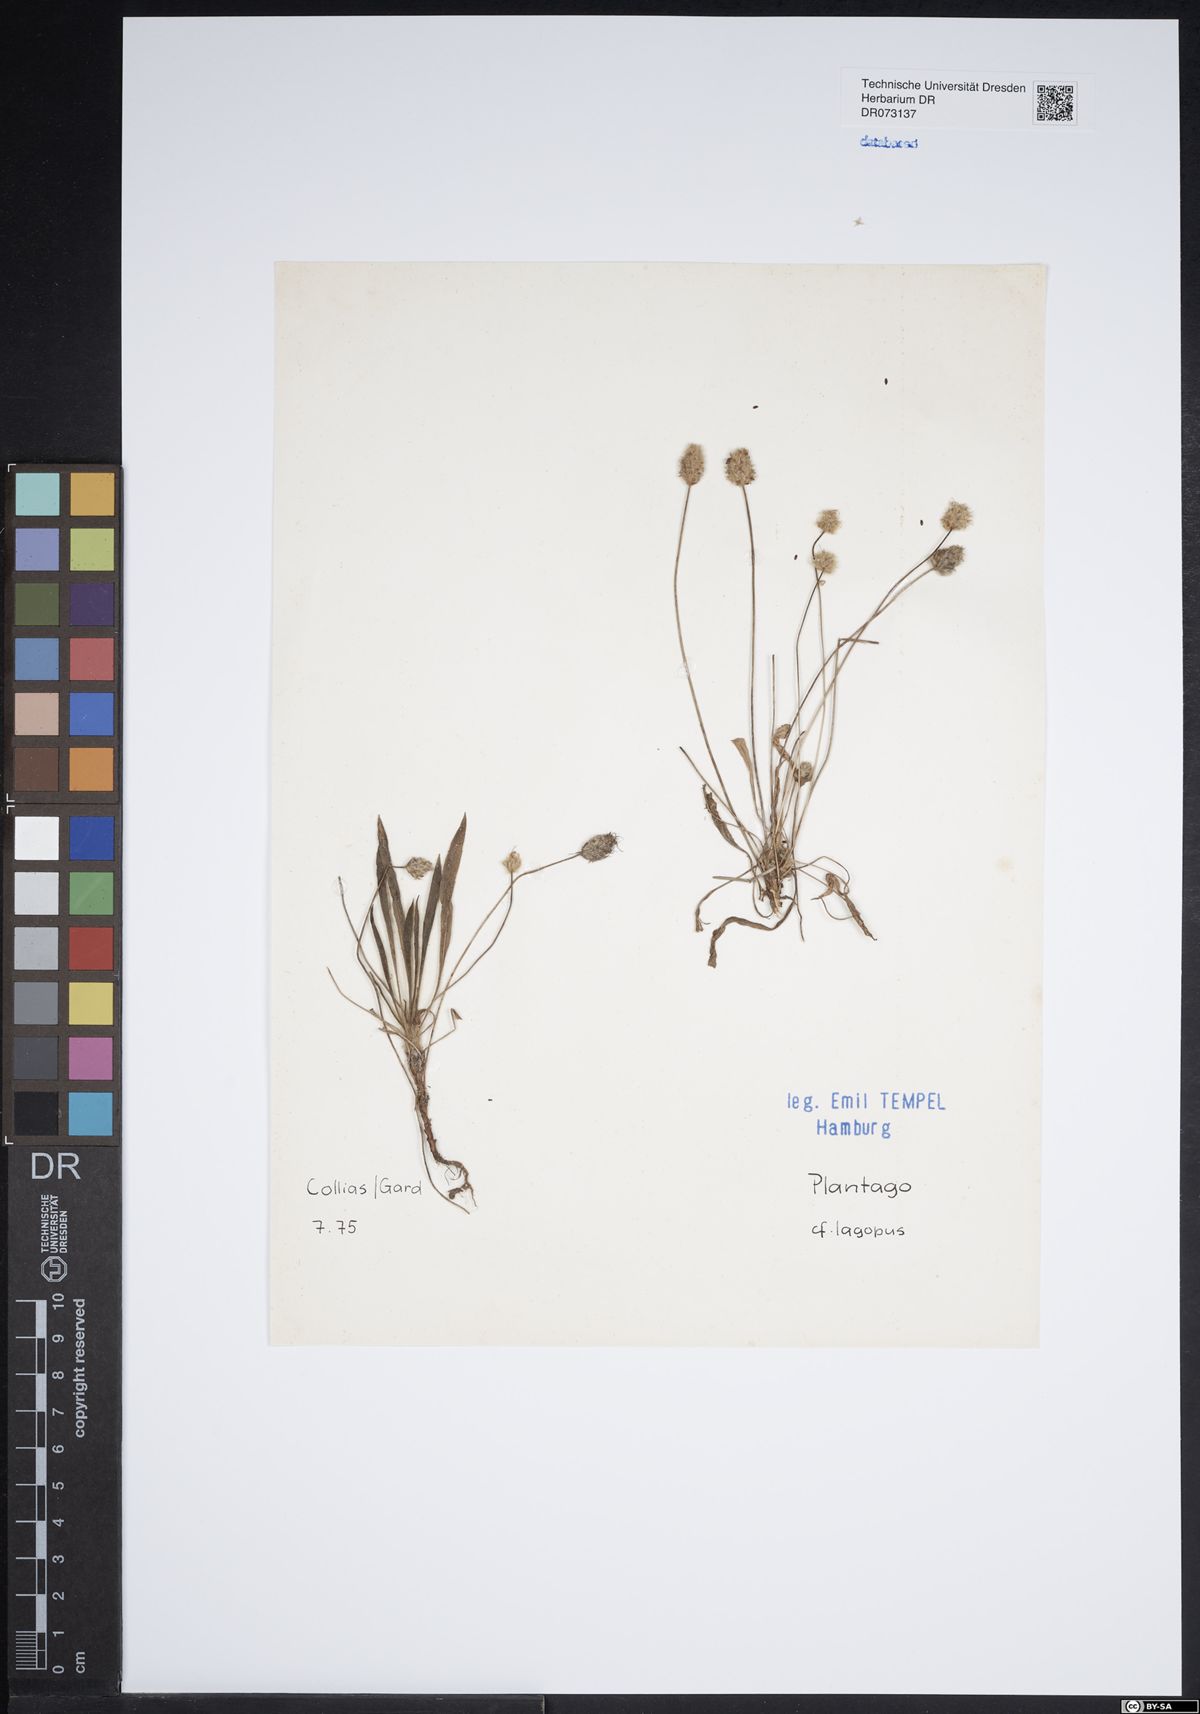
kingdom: Plantae
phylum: Tracheophyta
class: Magnoliopsida
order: Lamiales
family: Plantaginaceae
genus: Plantago
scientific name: Plantago lagopus
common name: Hare-foot plantain
